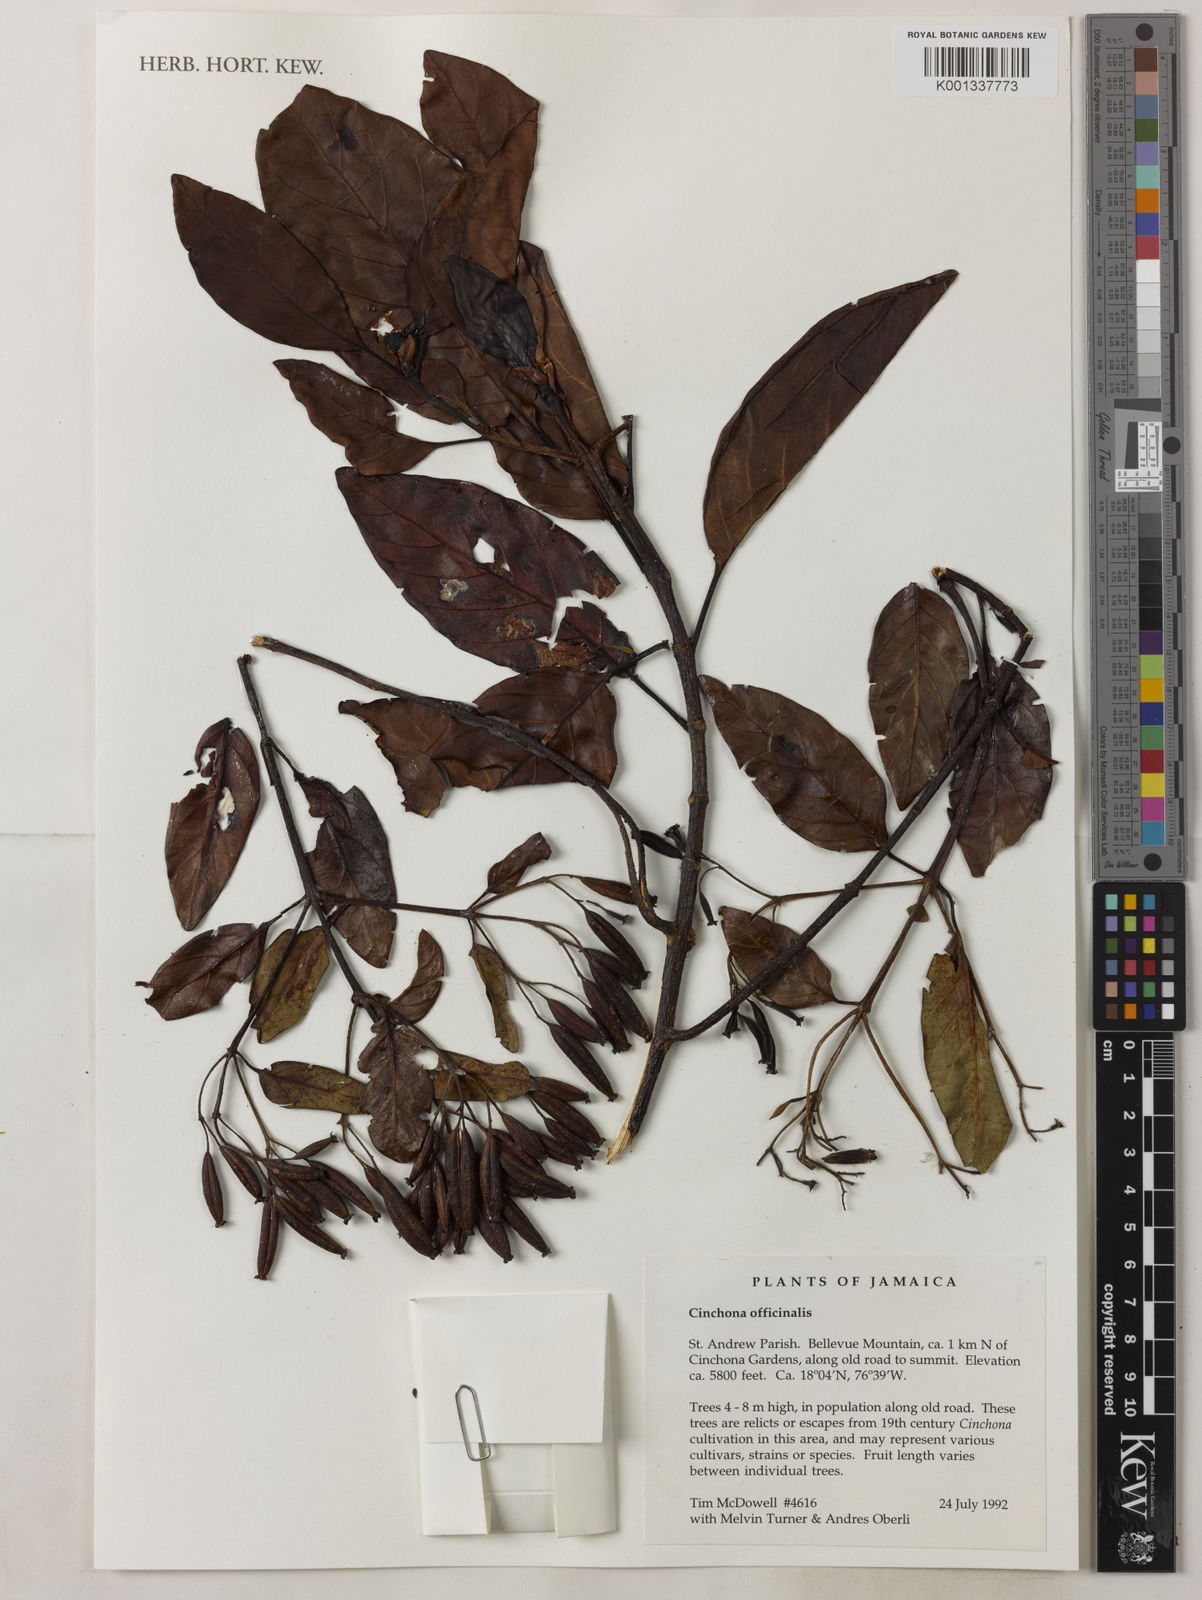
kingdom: Plantae
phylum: Tracheophyta
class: Magnoliopsida
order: Gentianales
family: Rubiaceae
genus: Cinchona
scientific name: Cinchona officinalis
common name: Lojabark
